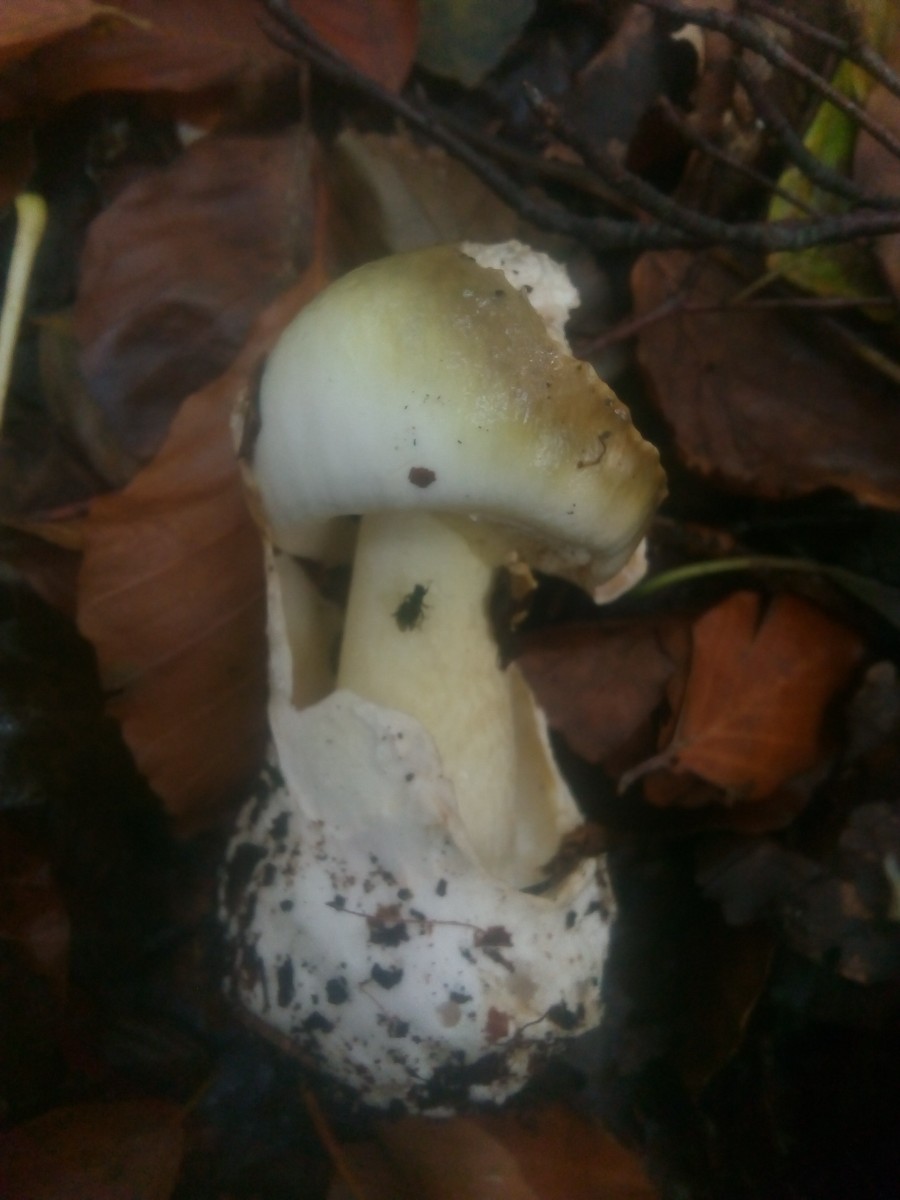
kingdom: Fungi
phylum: Basidiomycota
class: Agaricomycetes
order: Agaricales
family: Amanitaceae
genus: Amanita
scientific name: Amanita phalloides
